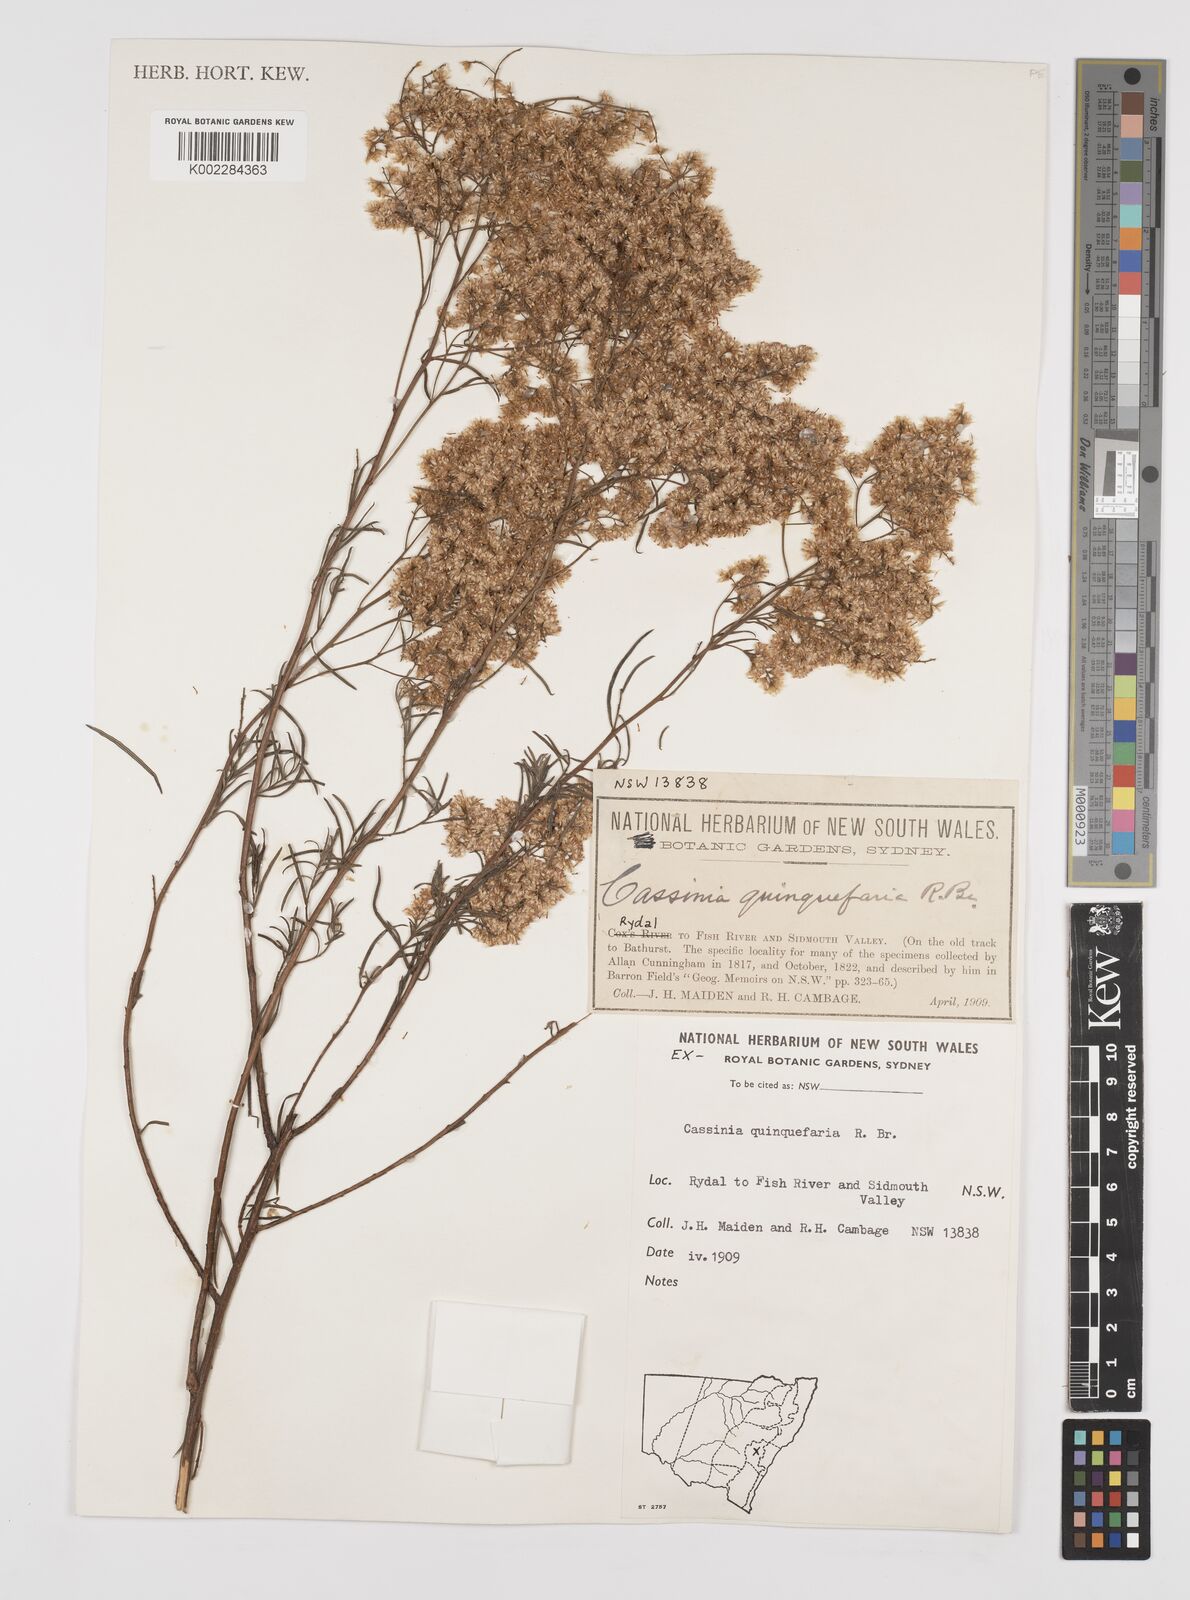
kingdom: Plantae
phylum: Tracheophyta
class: Magnoliopsida
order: Asterales
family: Asteraceae
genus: Cassinia
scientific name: Cassinia quinquefaria
